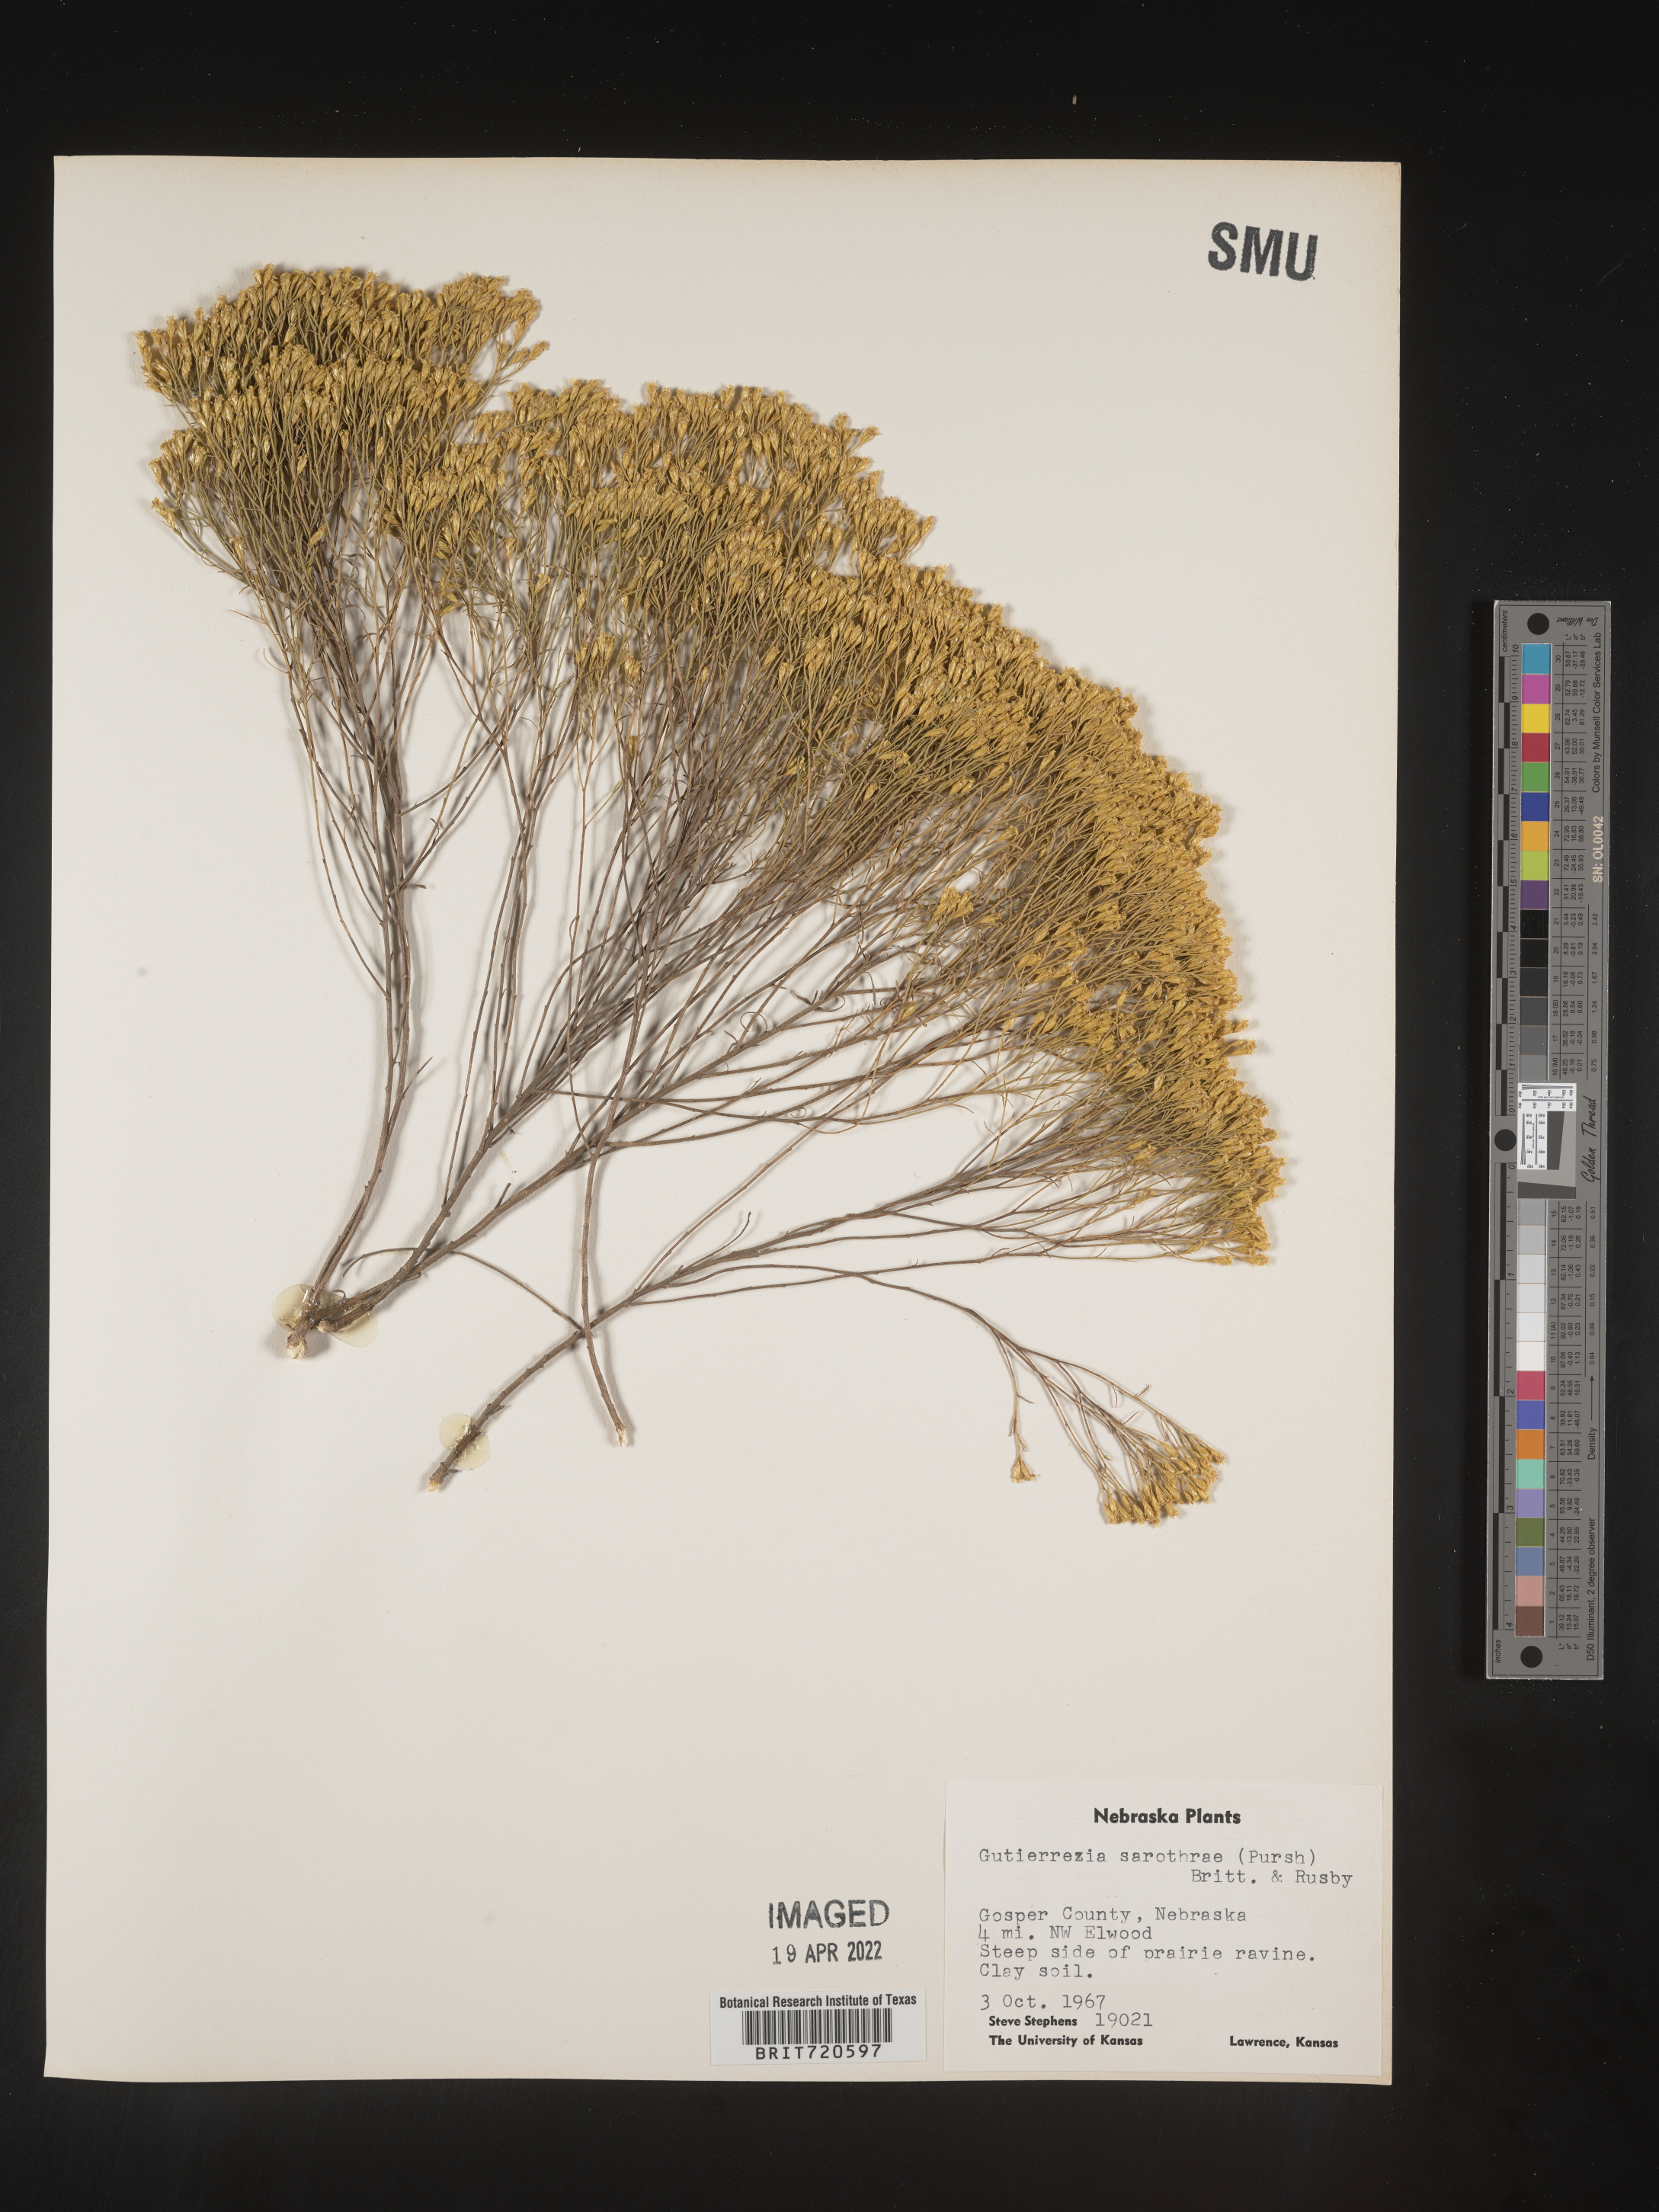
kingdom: Plantae
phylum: Tracheophyta
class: Magnoliopsida
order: Asterales
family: Asteraceae
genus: Gutierrezia
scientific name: Gutierrezia sarothrae
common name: Broom snakeweed
